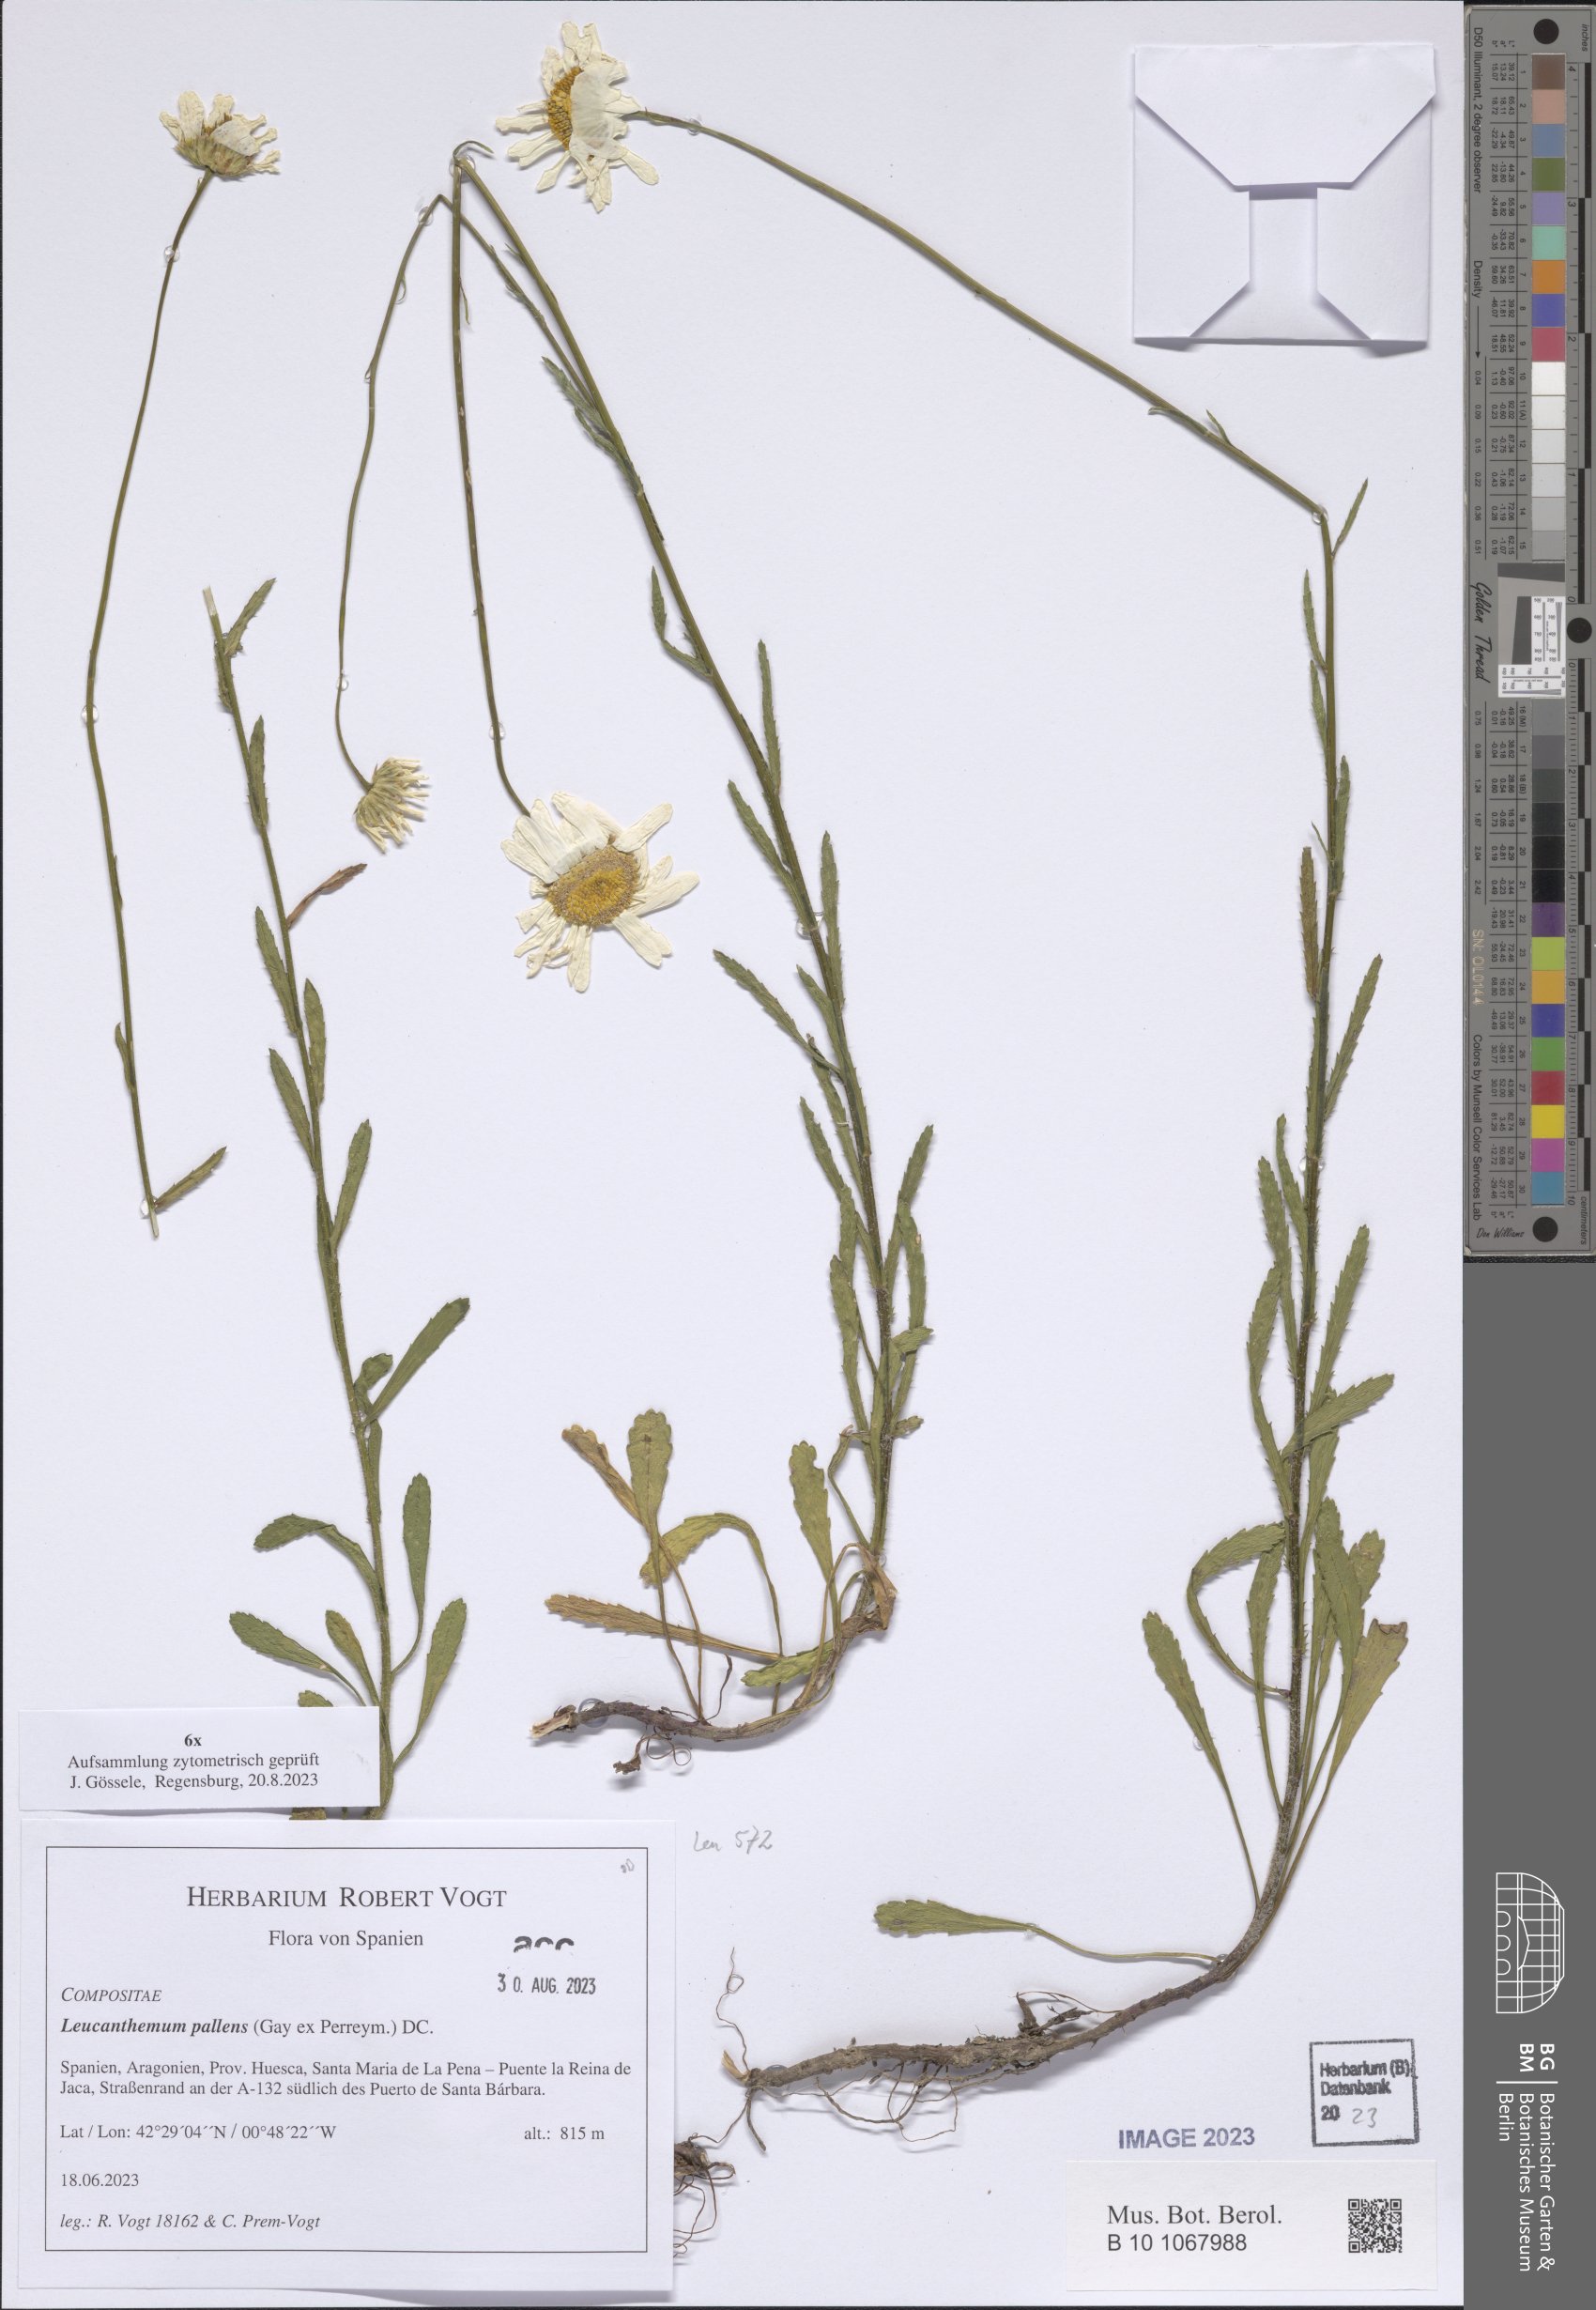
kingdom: Plantae
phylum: Tracheophyta
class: Magnoliopsida
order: Asterales
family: Asteraceae
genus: Leucanthemum
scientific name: Leucanthemum pallens
